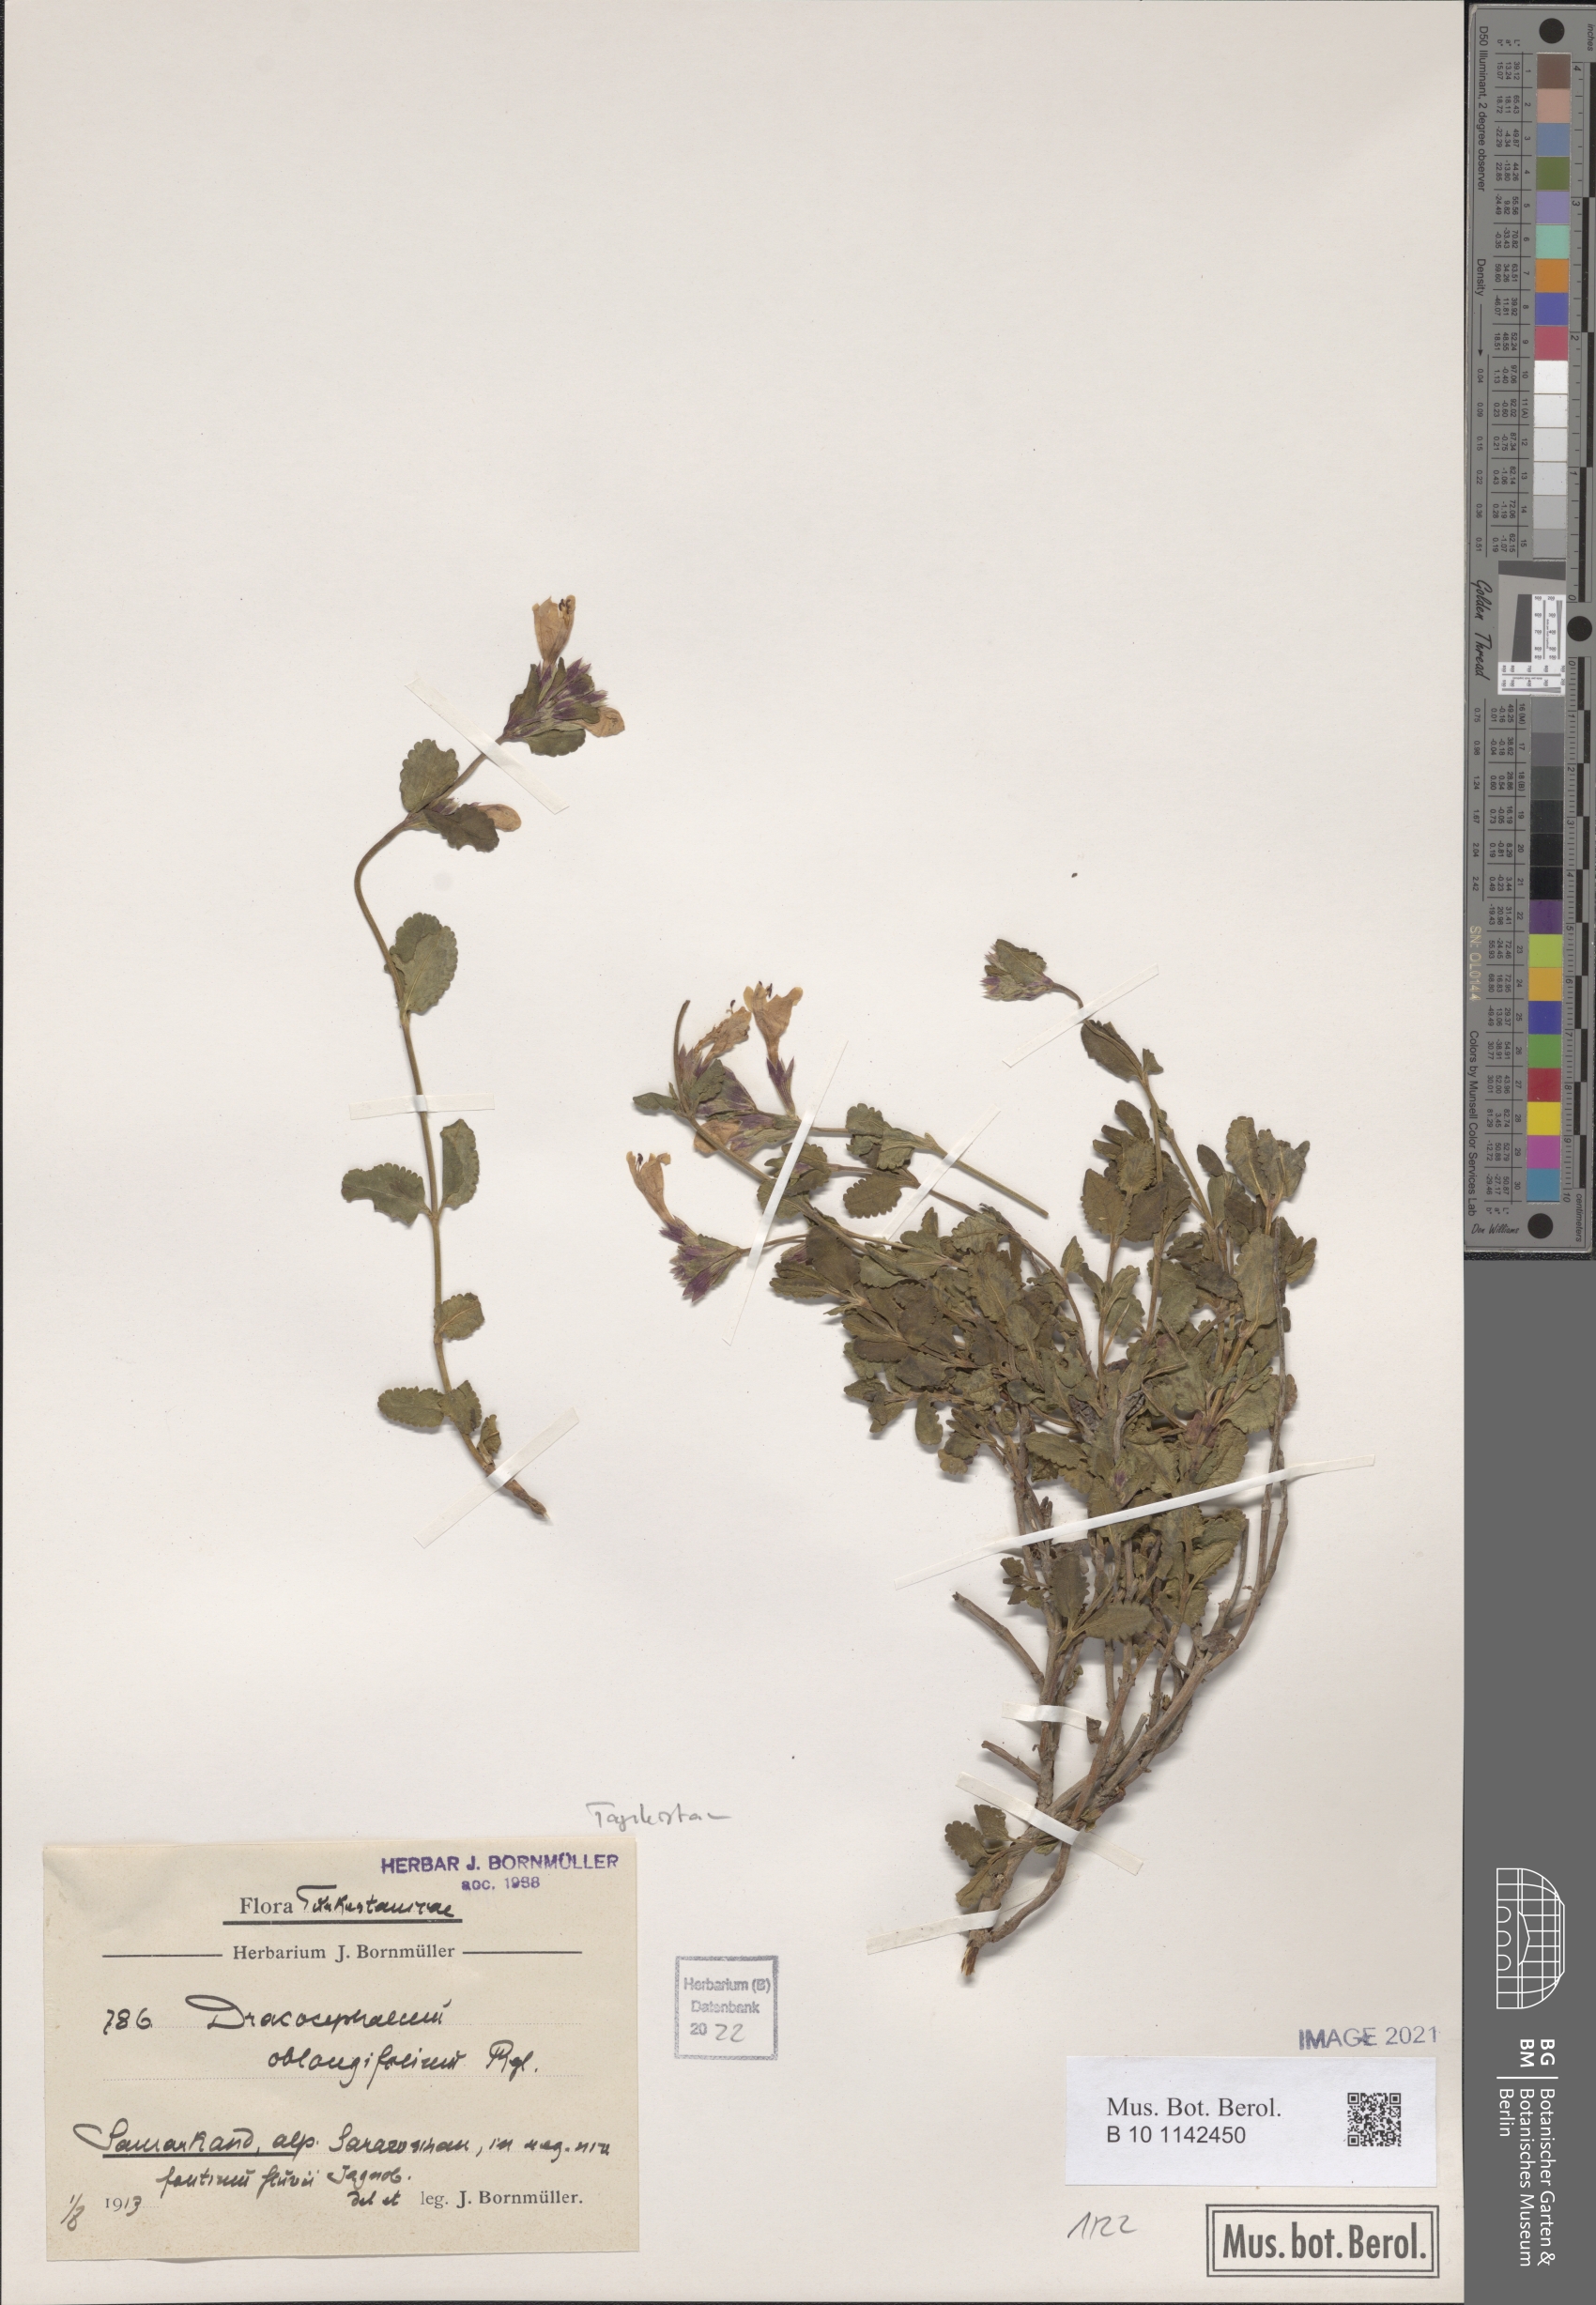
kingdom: Plantae
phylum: Tracheophyta
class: Magnoliopsida
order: Lamiales
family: Lamiaceae
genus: Dracocephalum
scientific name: Dracocephalum oblongifolium
